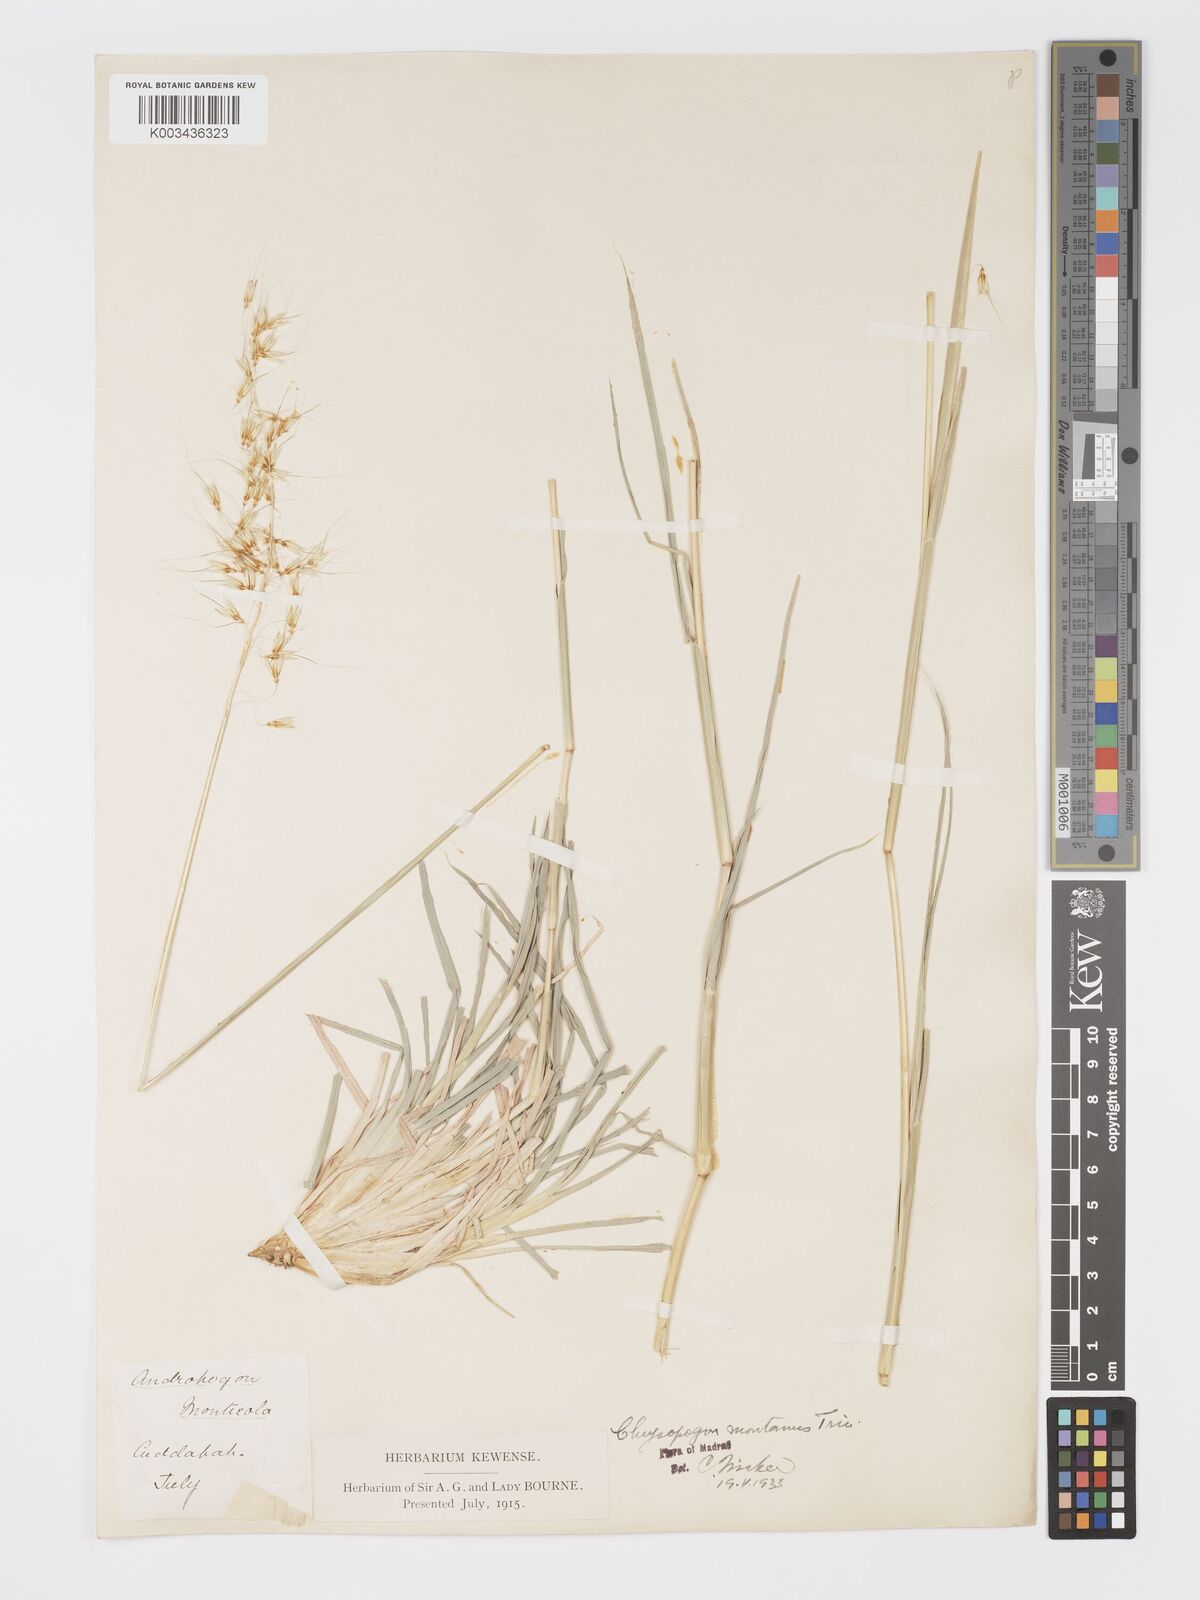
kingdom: Plantae
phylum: Tracheophyta
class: Liliopsida
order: Poales
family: Poaceae
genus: Chrysopogon
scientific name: Chrysopogon fulvus
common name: Red false beardgrass
